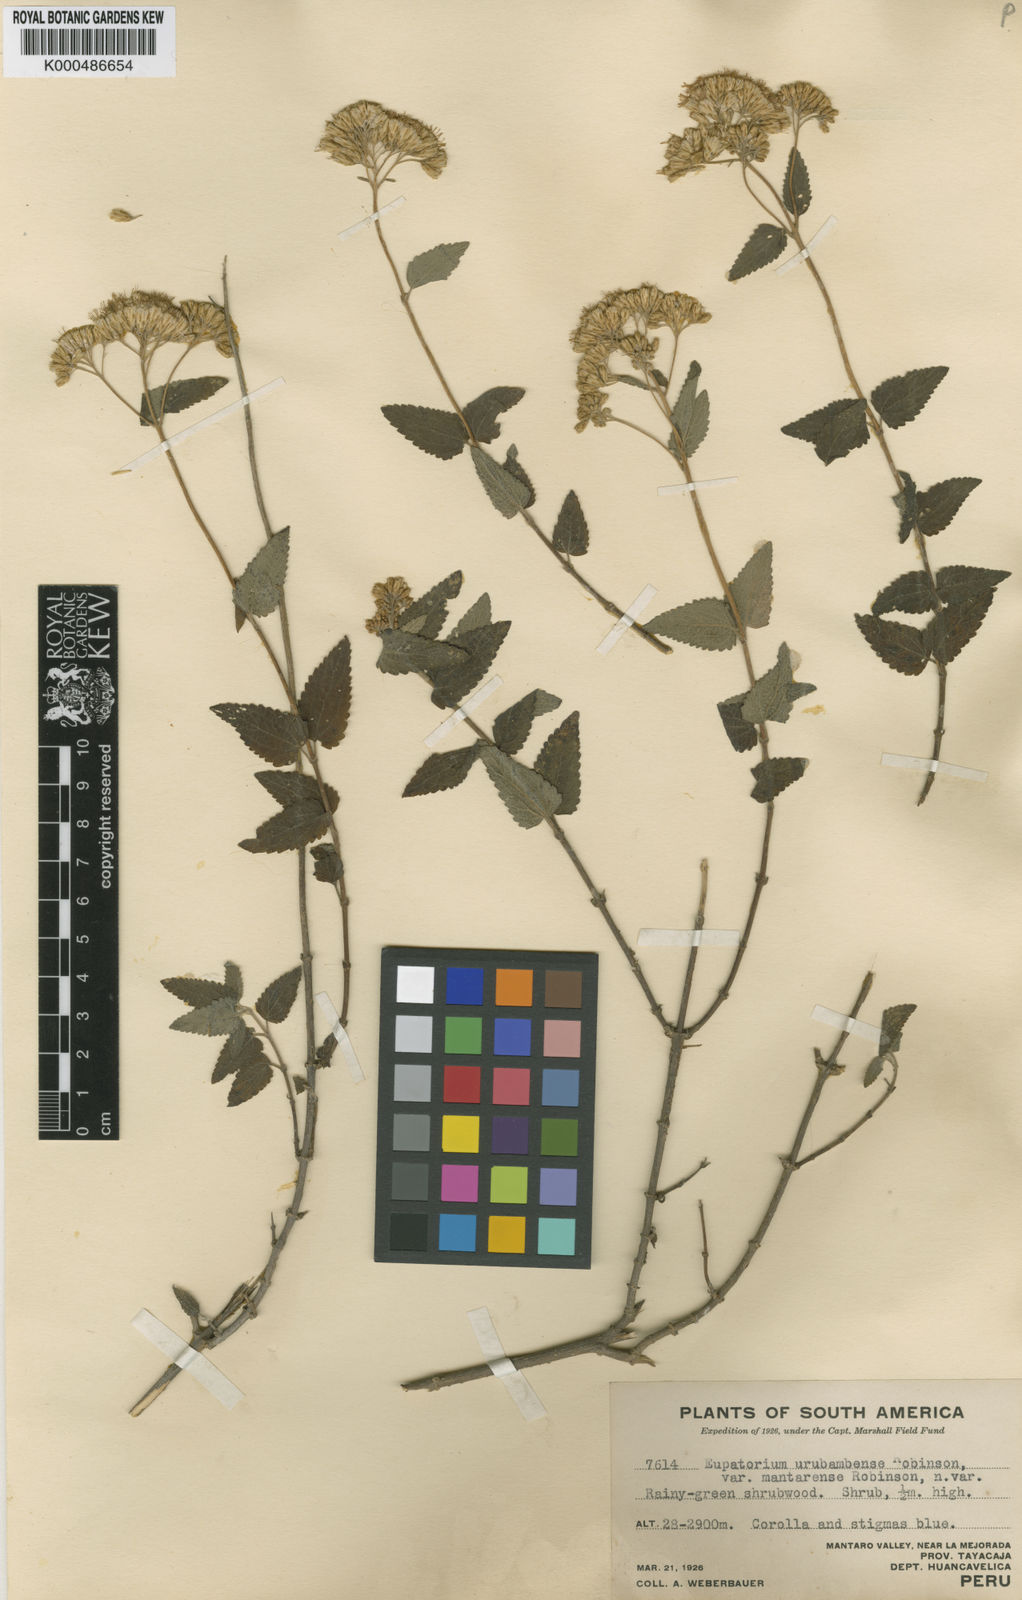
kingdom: Plantae
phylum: Tracheophyta
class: Magnoliopsida
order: Asterales
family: Asteraceae
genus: Cronquistianthus
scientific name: Cronquistianthus urubambensis
